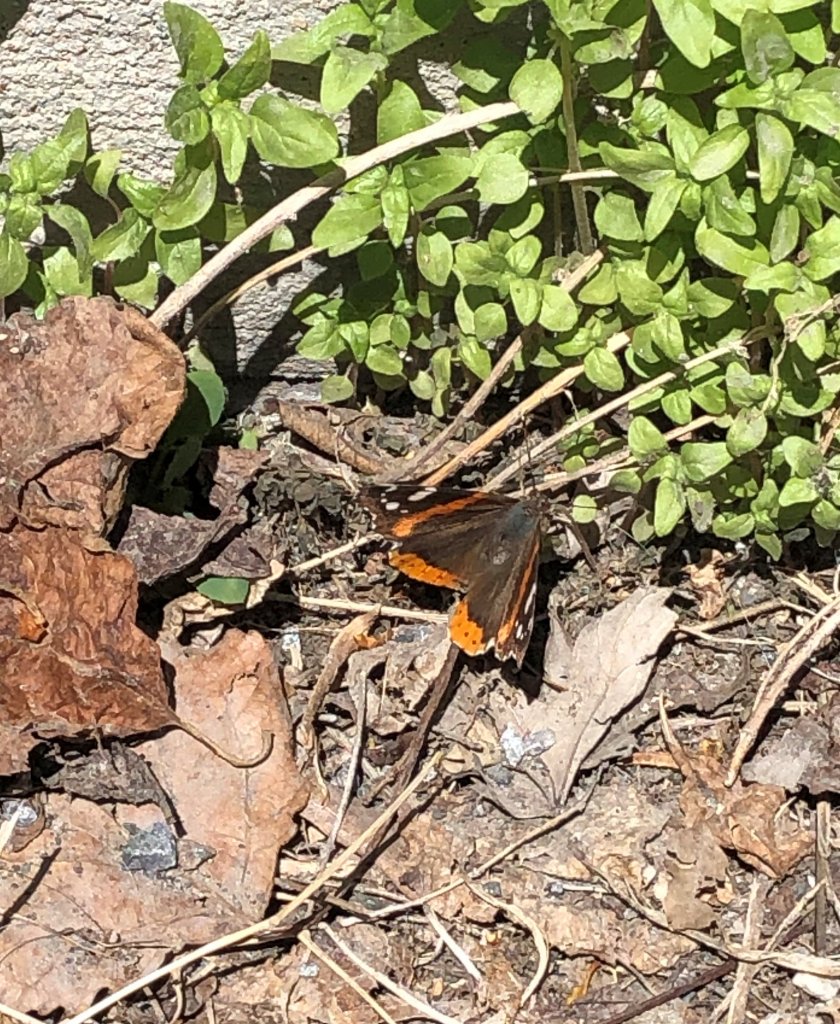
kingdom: Animalia
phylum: Arthropoda
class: Insecta
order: Lepidoptera
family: Nymphalidae
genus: Vanessa
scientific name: Vanessa atalanta
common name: Red Admiral
